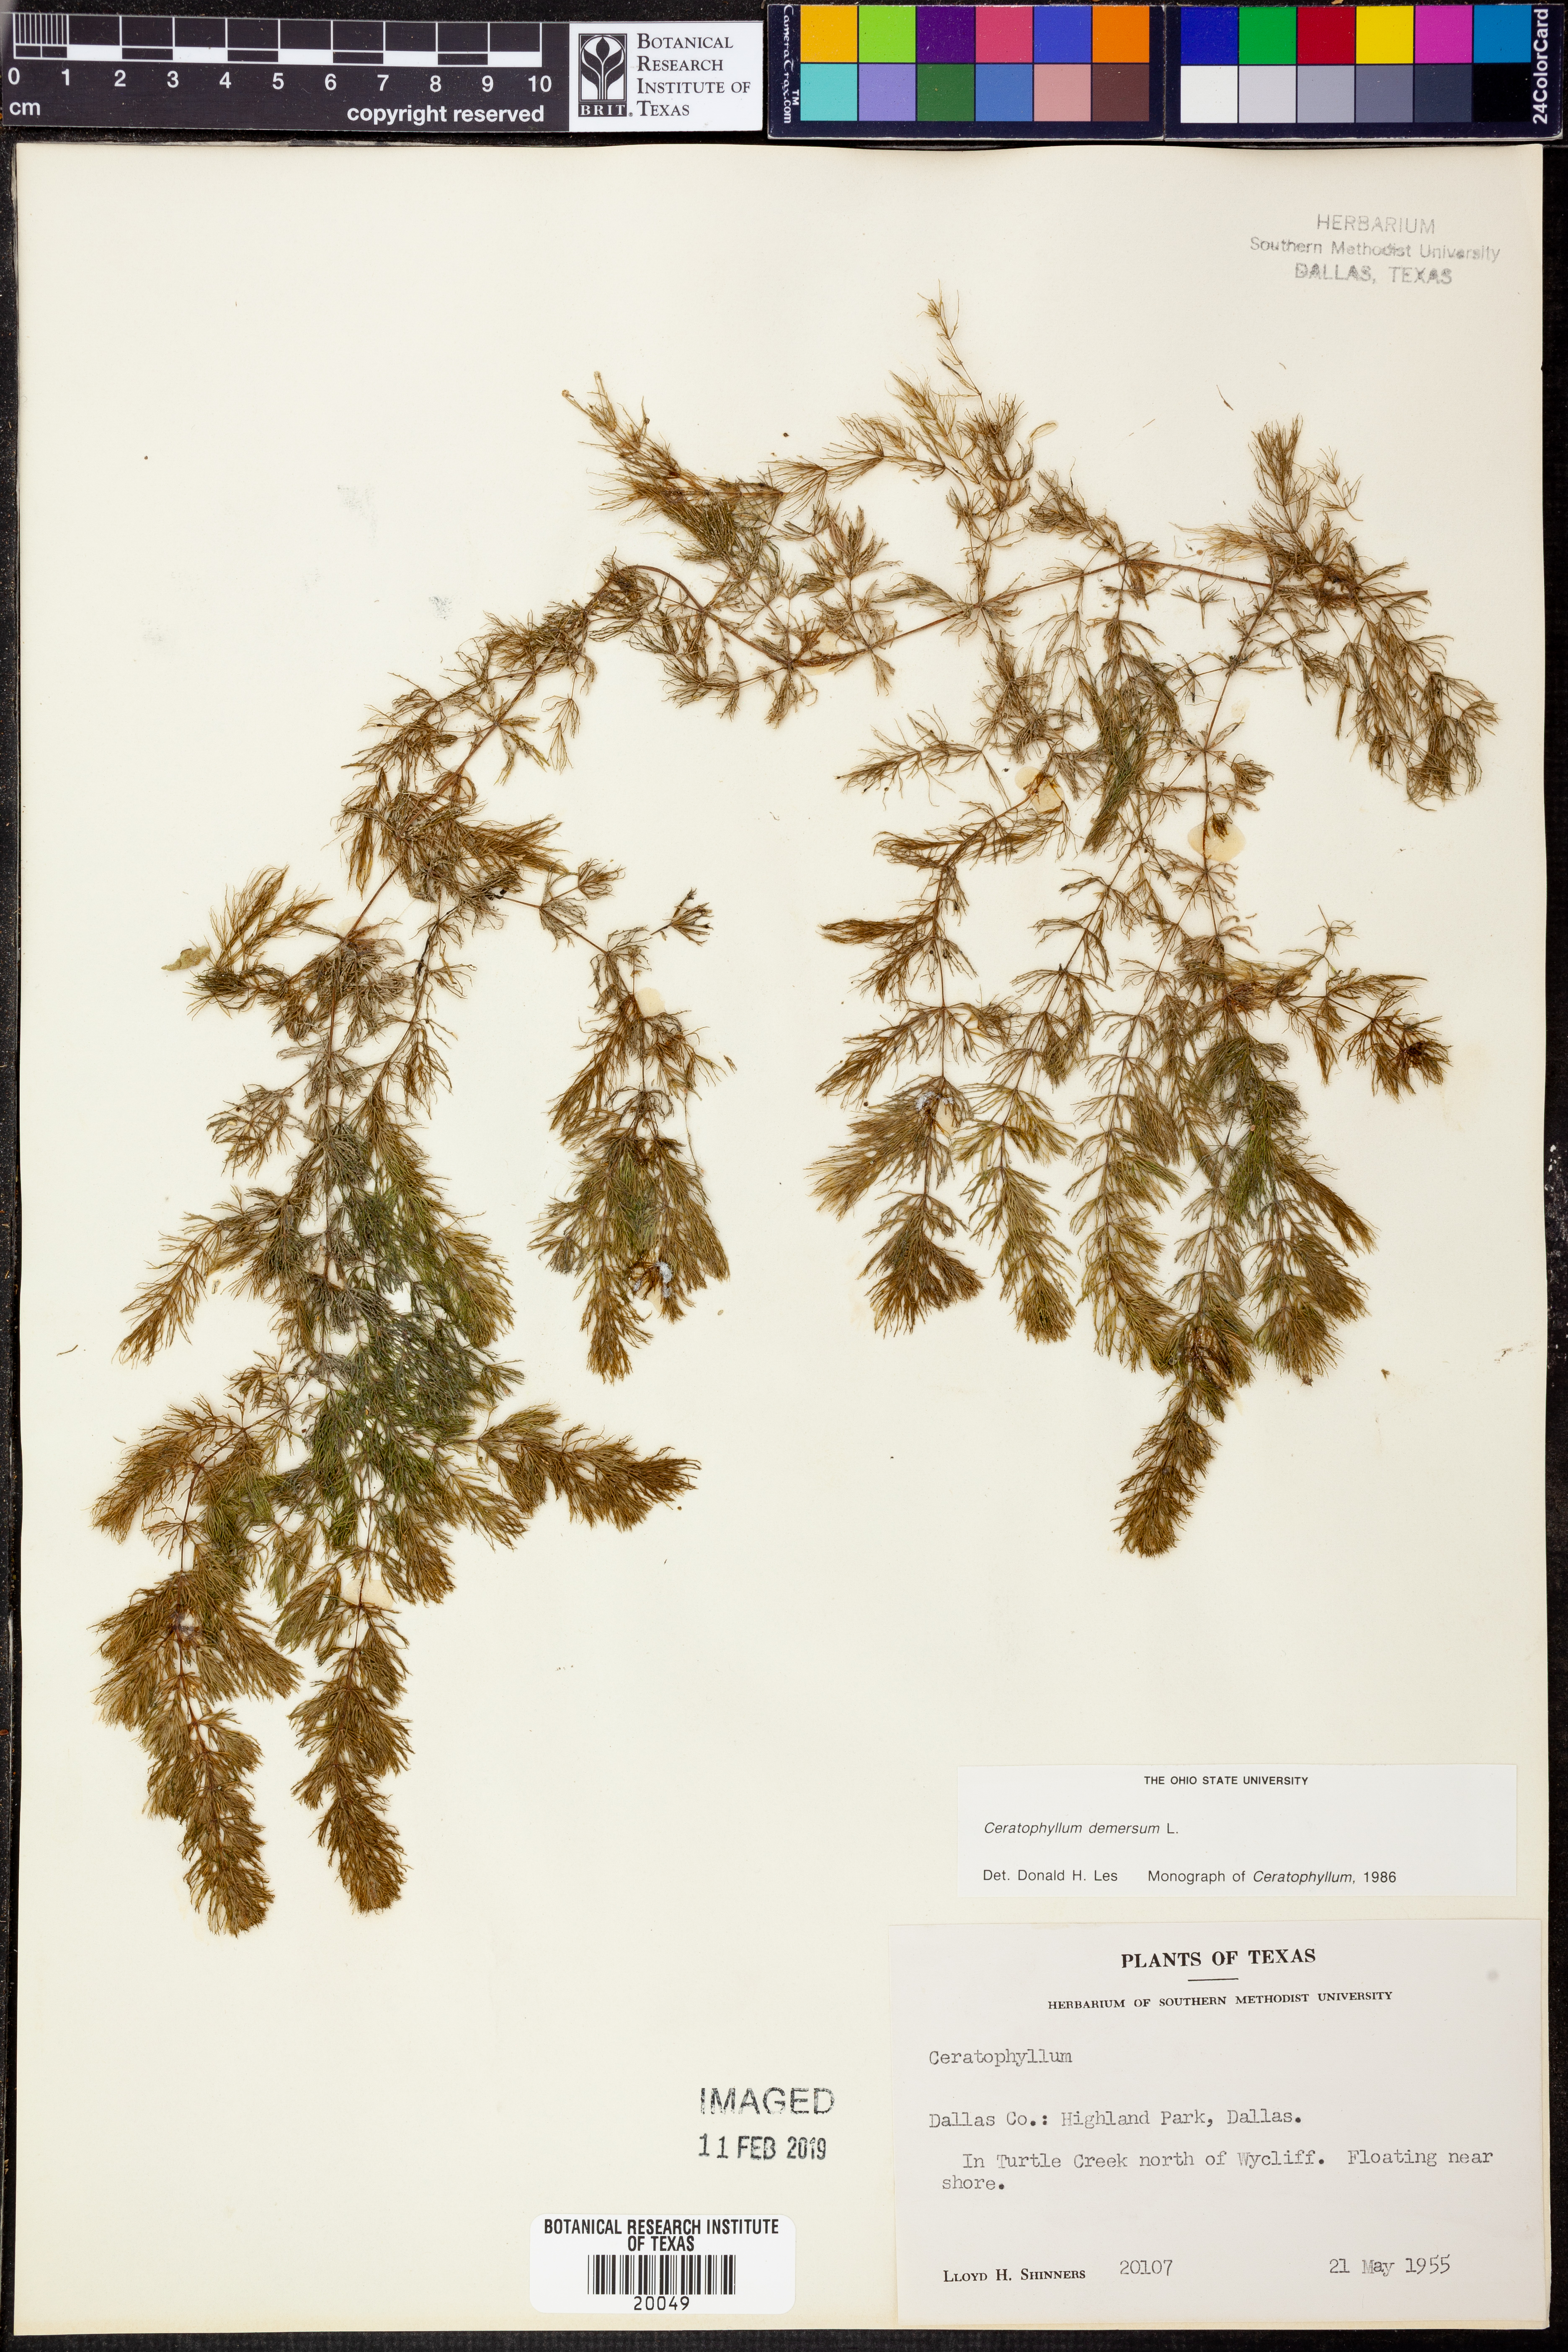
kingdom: Plantae
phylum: Tracheophyta
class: Magnoliopsida
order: Ceratophyllales
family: Ceratophyllaceae
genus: Ceratophyllum
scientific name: Ceratophyllum demersum
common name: Rigid hornwort
